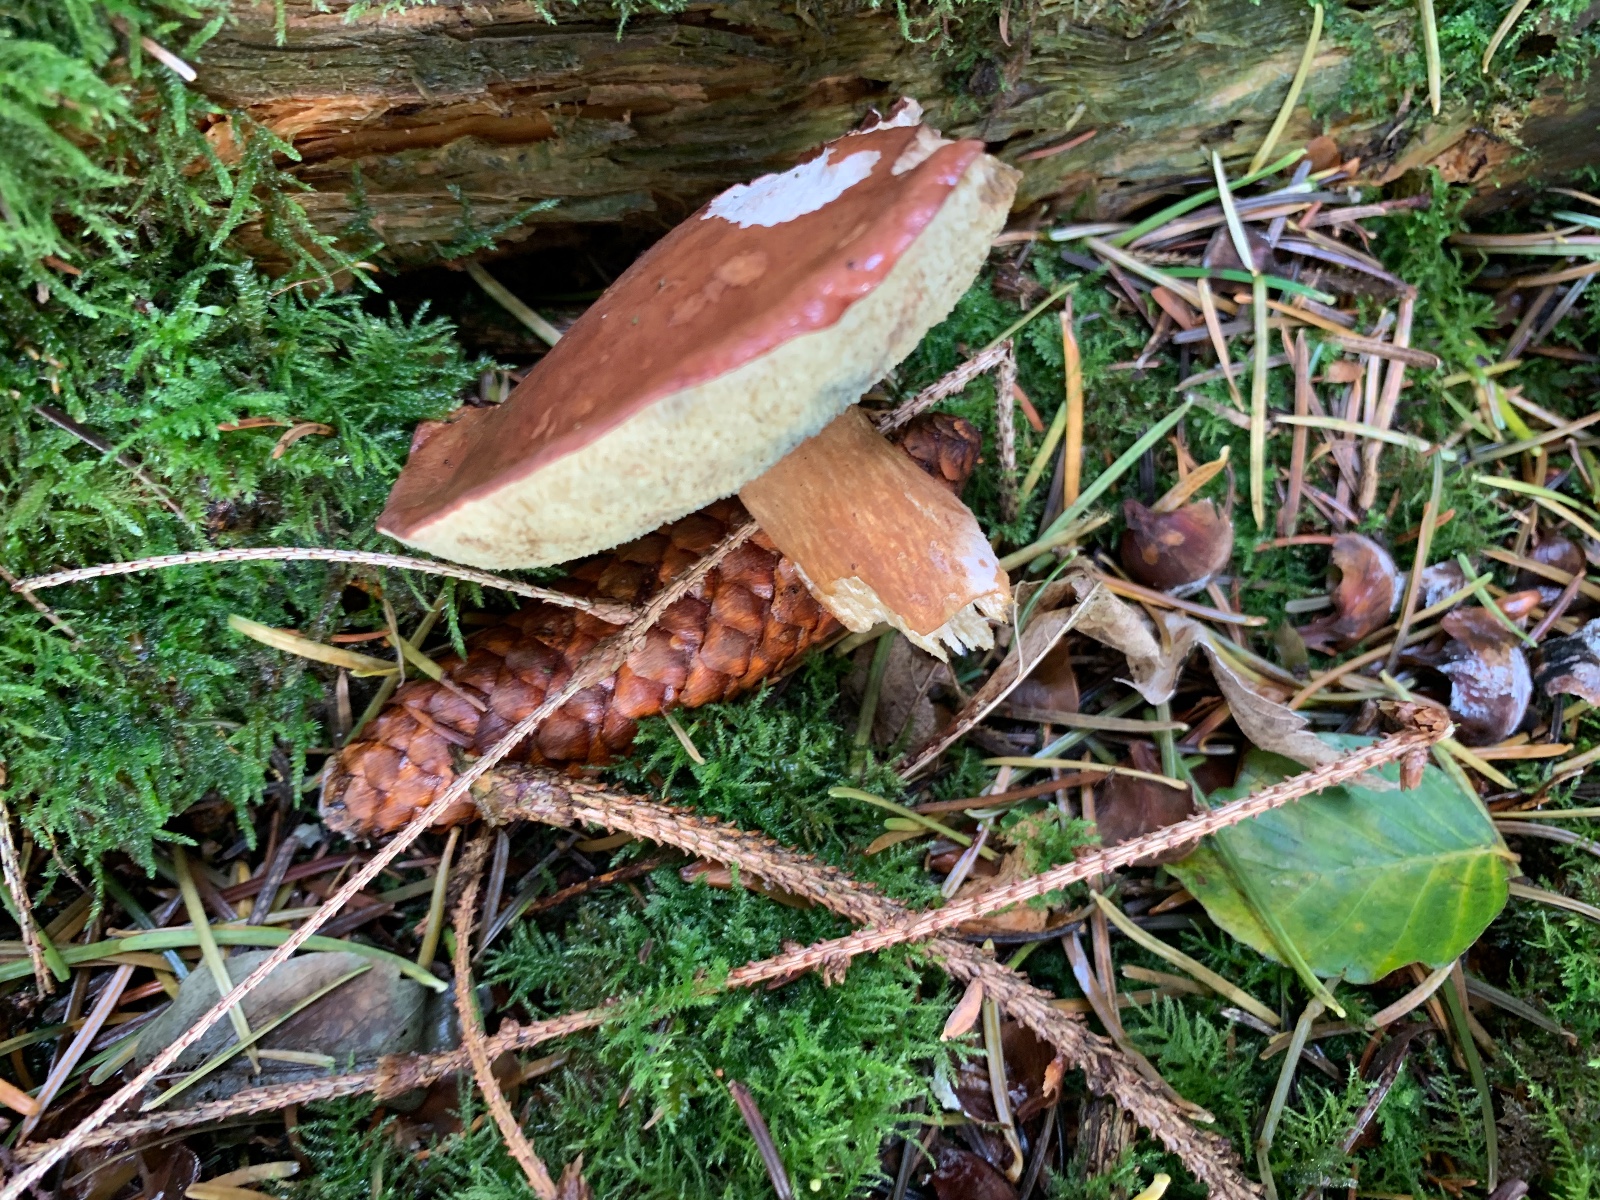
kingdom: Fungi
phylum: Basidiomycota
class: Agaricomycetes
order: Boletales
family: Boletaceae
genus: Imleria
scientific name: Imleria badia
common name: brunstokket rørhat
